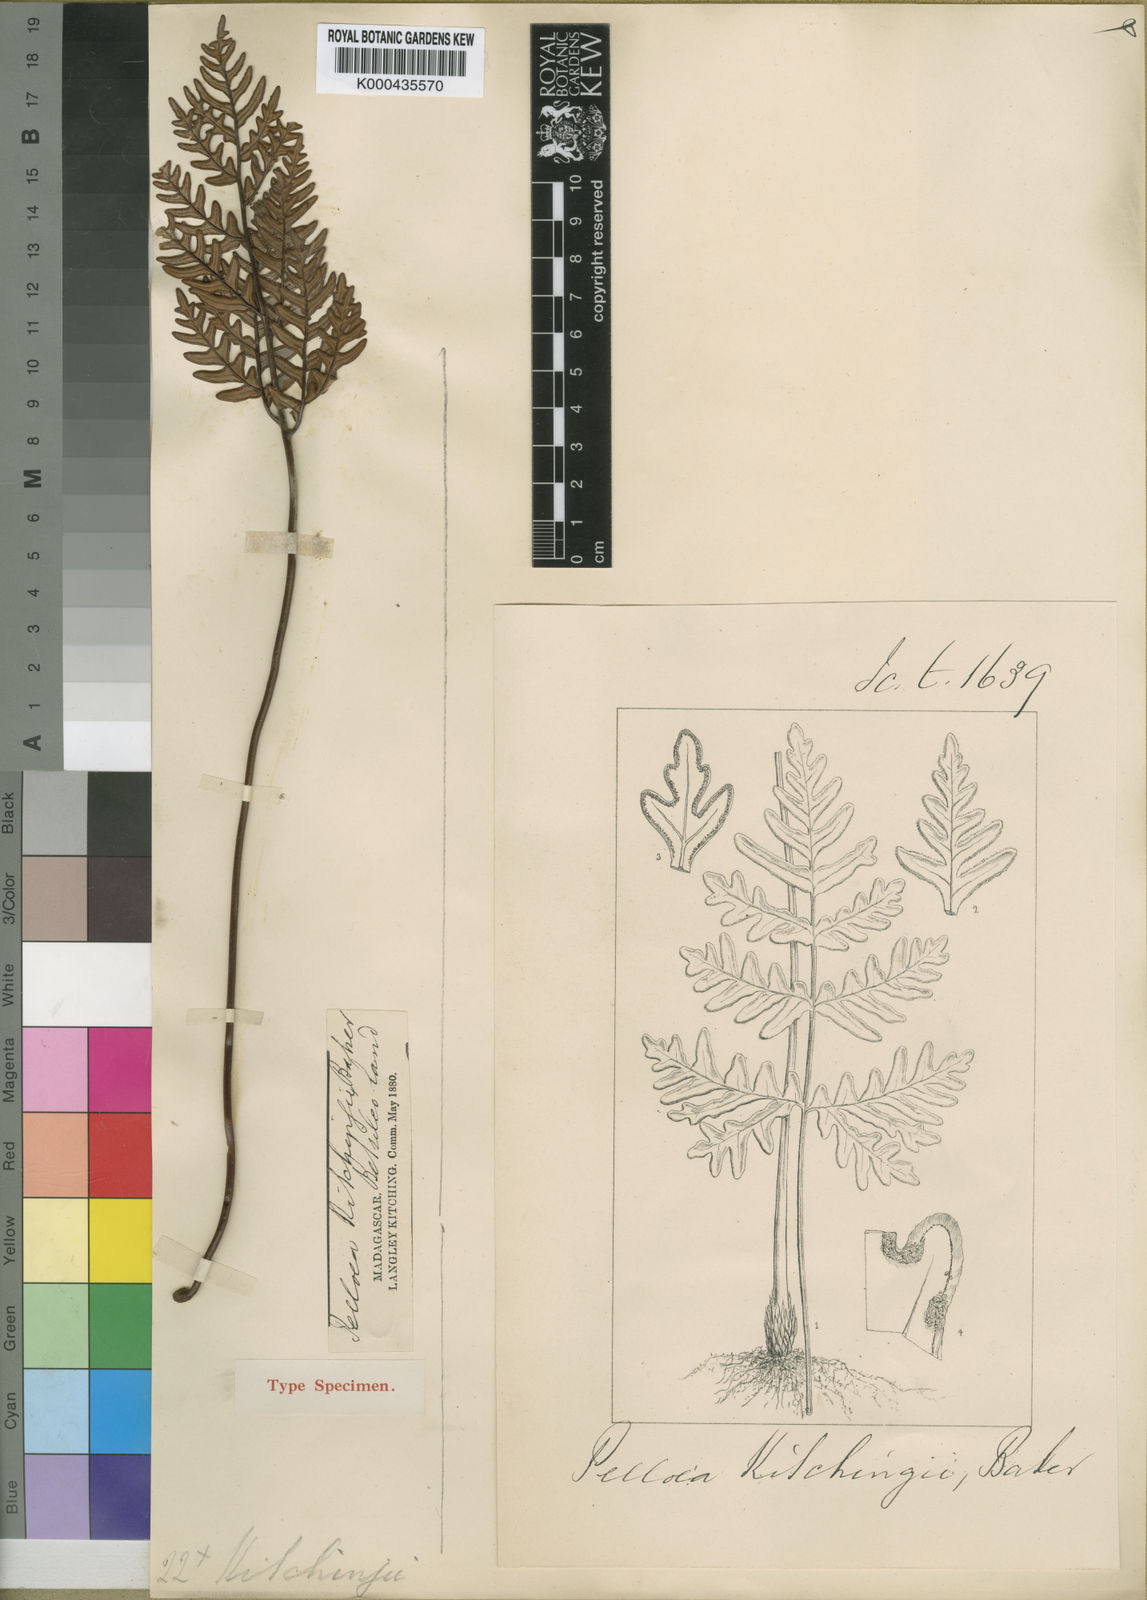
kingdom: Plantae
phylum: Tracheophyta
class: Polypodiopsida
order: Polypodiales
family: Pteridaceae
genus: Doryopteris
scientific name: Doryopteris kitchingii
